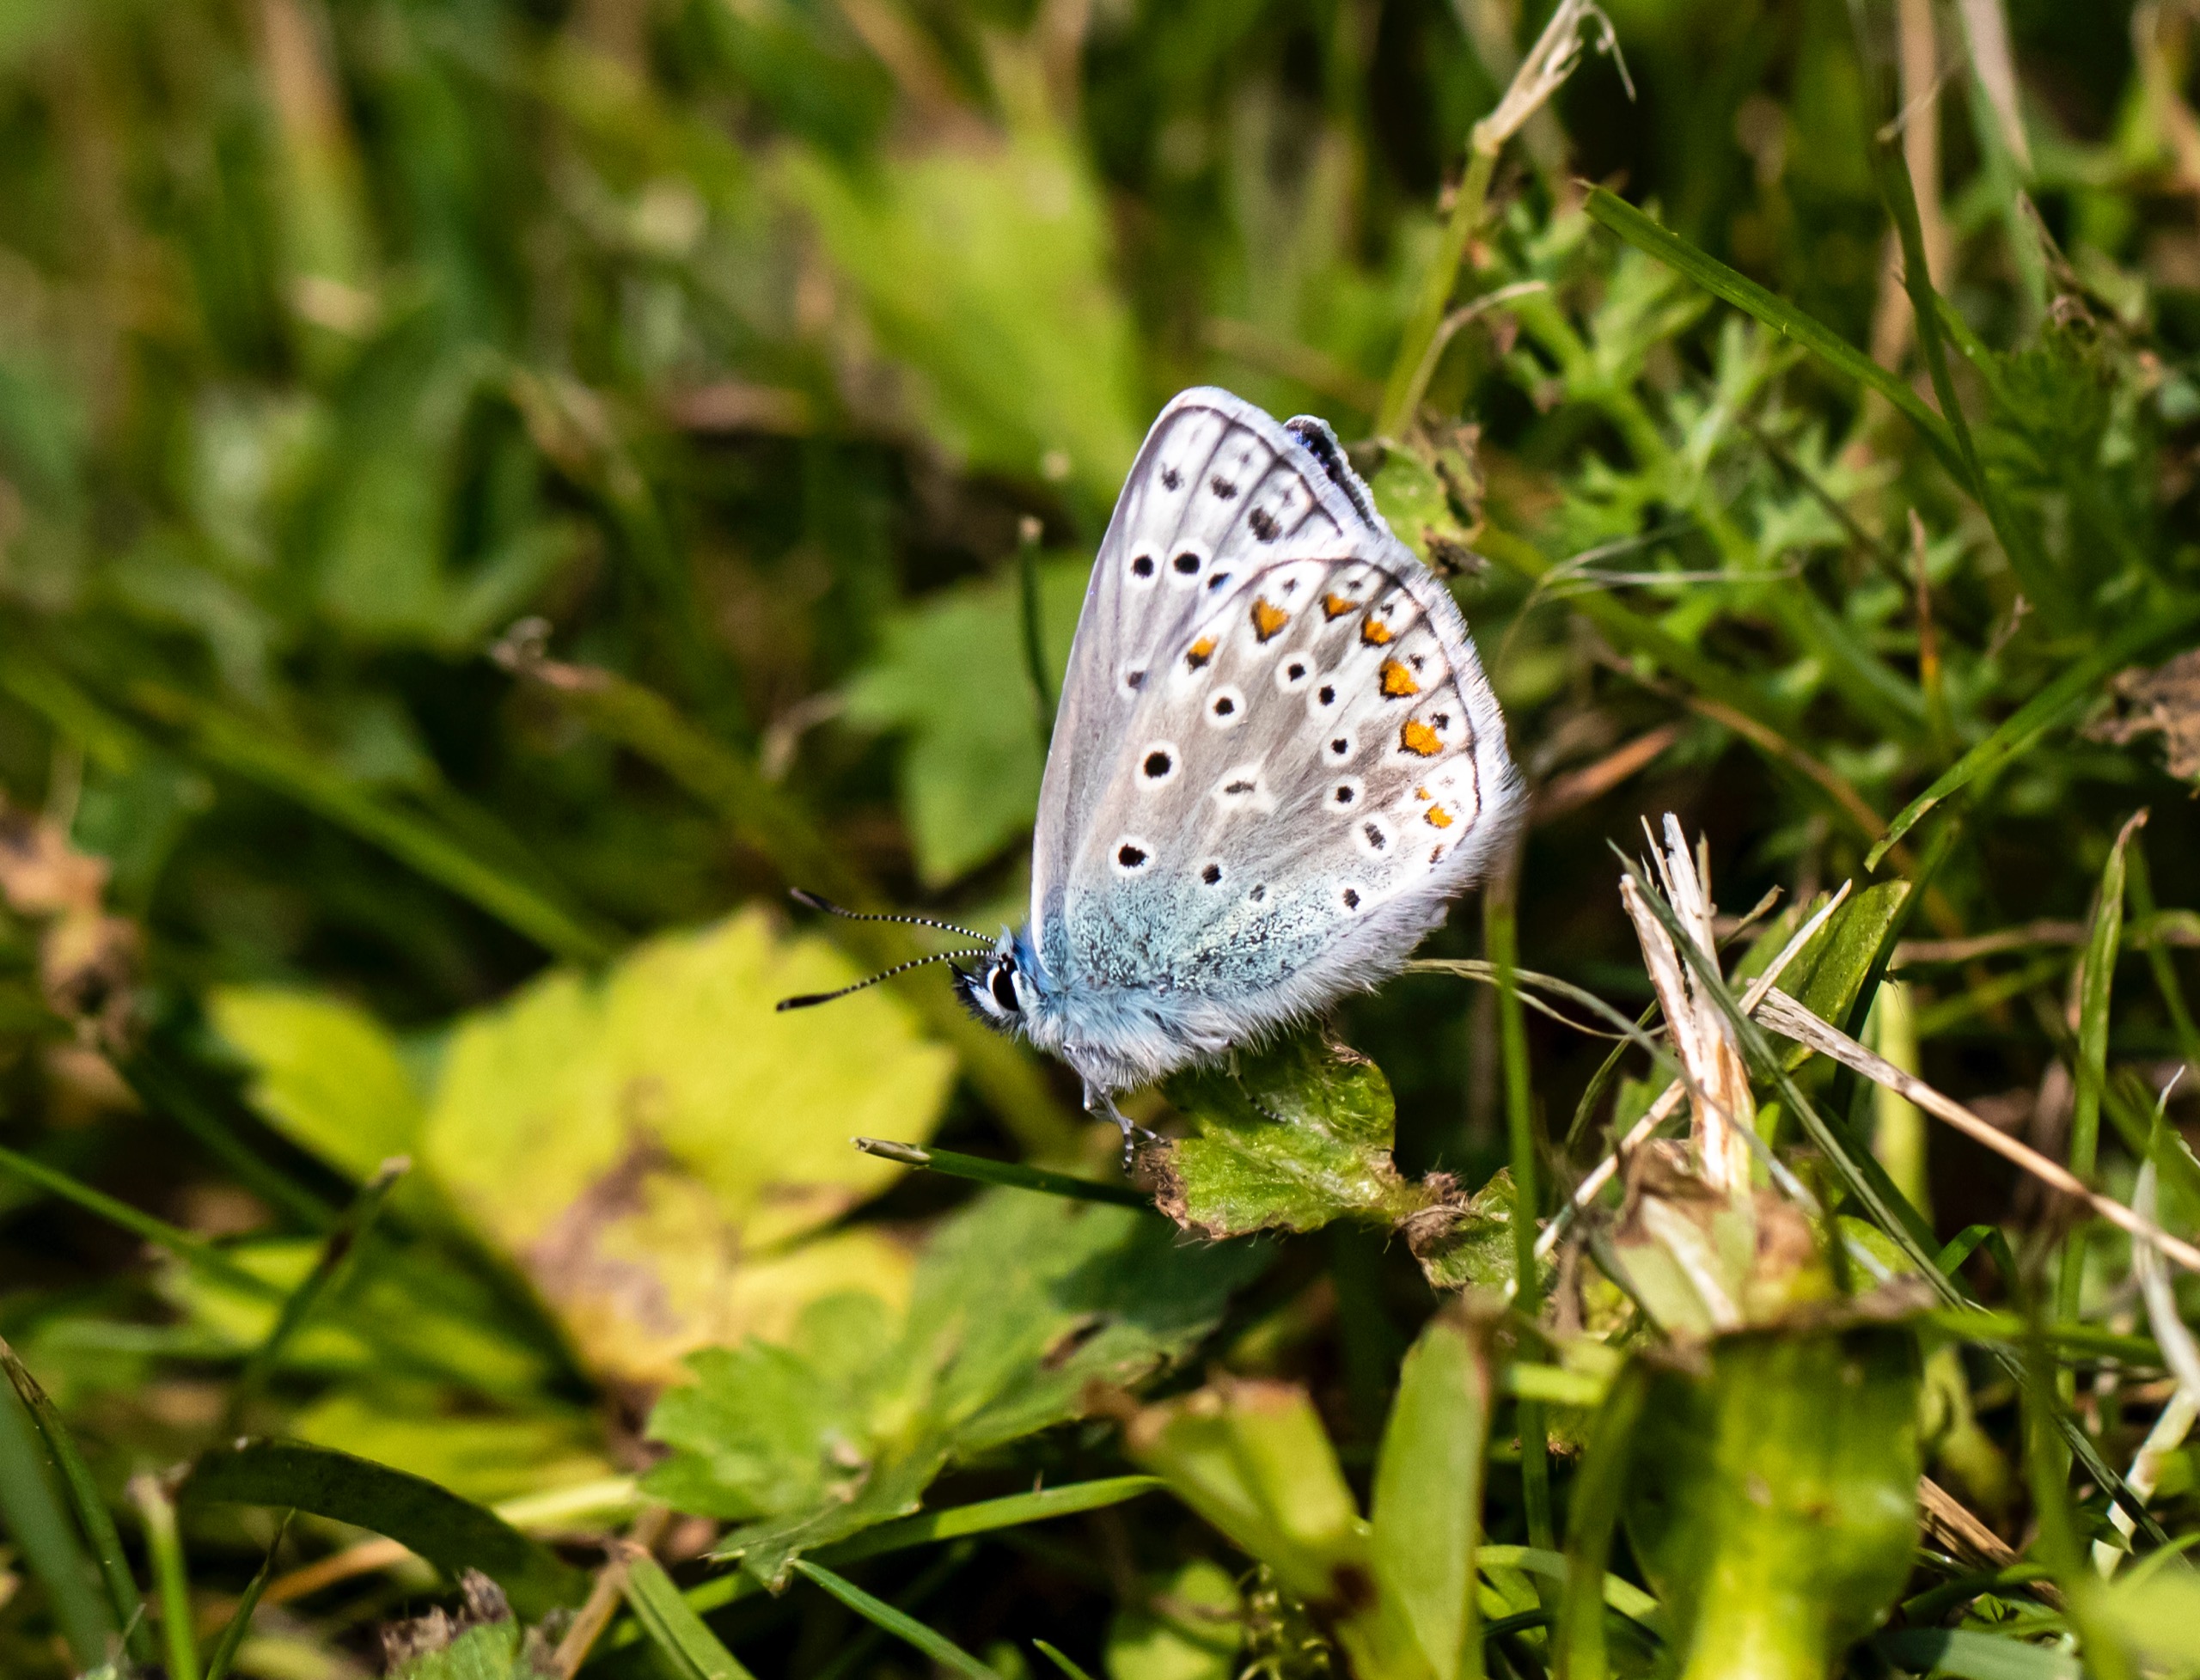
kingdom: Animalia
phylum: Arthropoda
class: Insecta
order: Lepidoptera
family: Lycaenidae
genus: Polyommatus
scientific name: Polyommatus icarus
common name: Almindelig blåfugl
